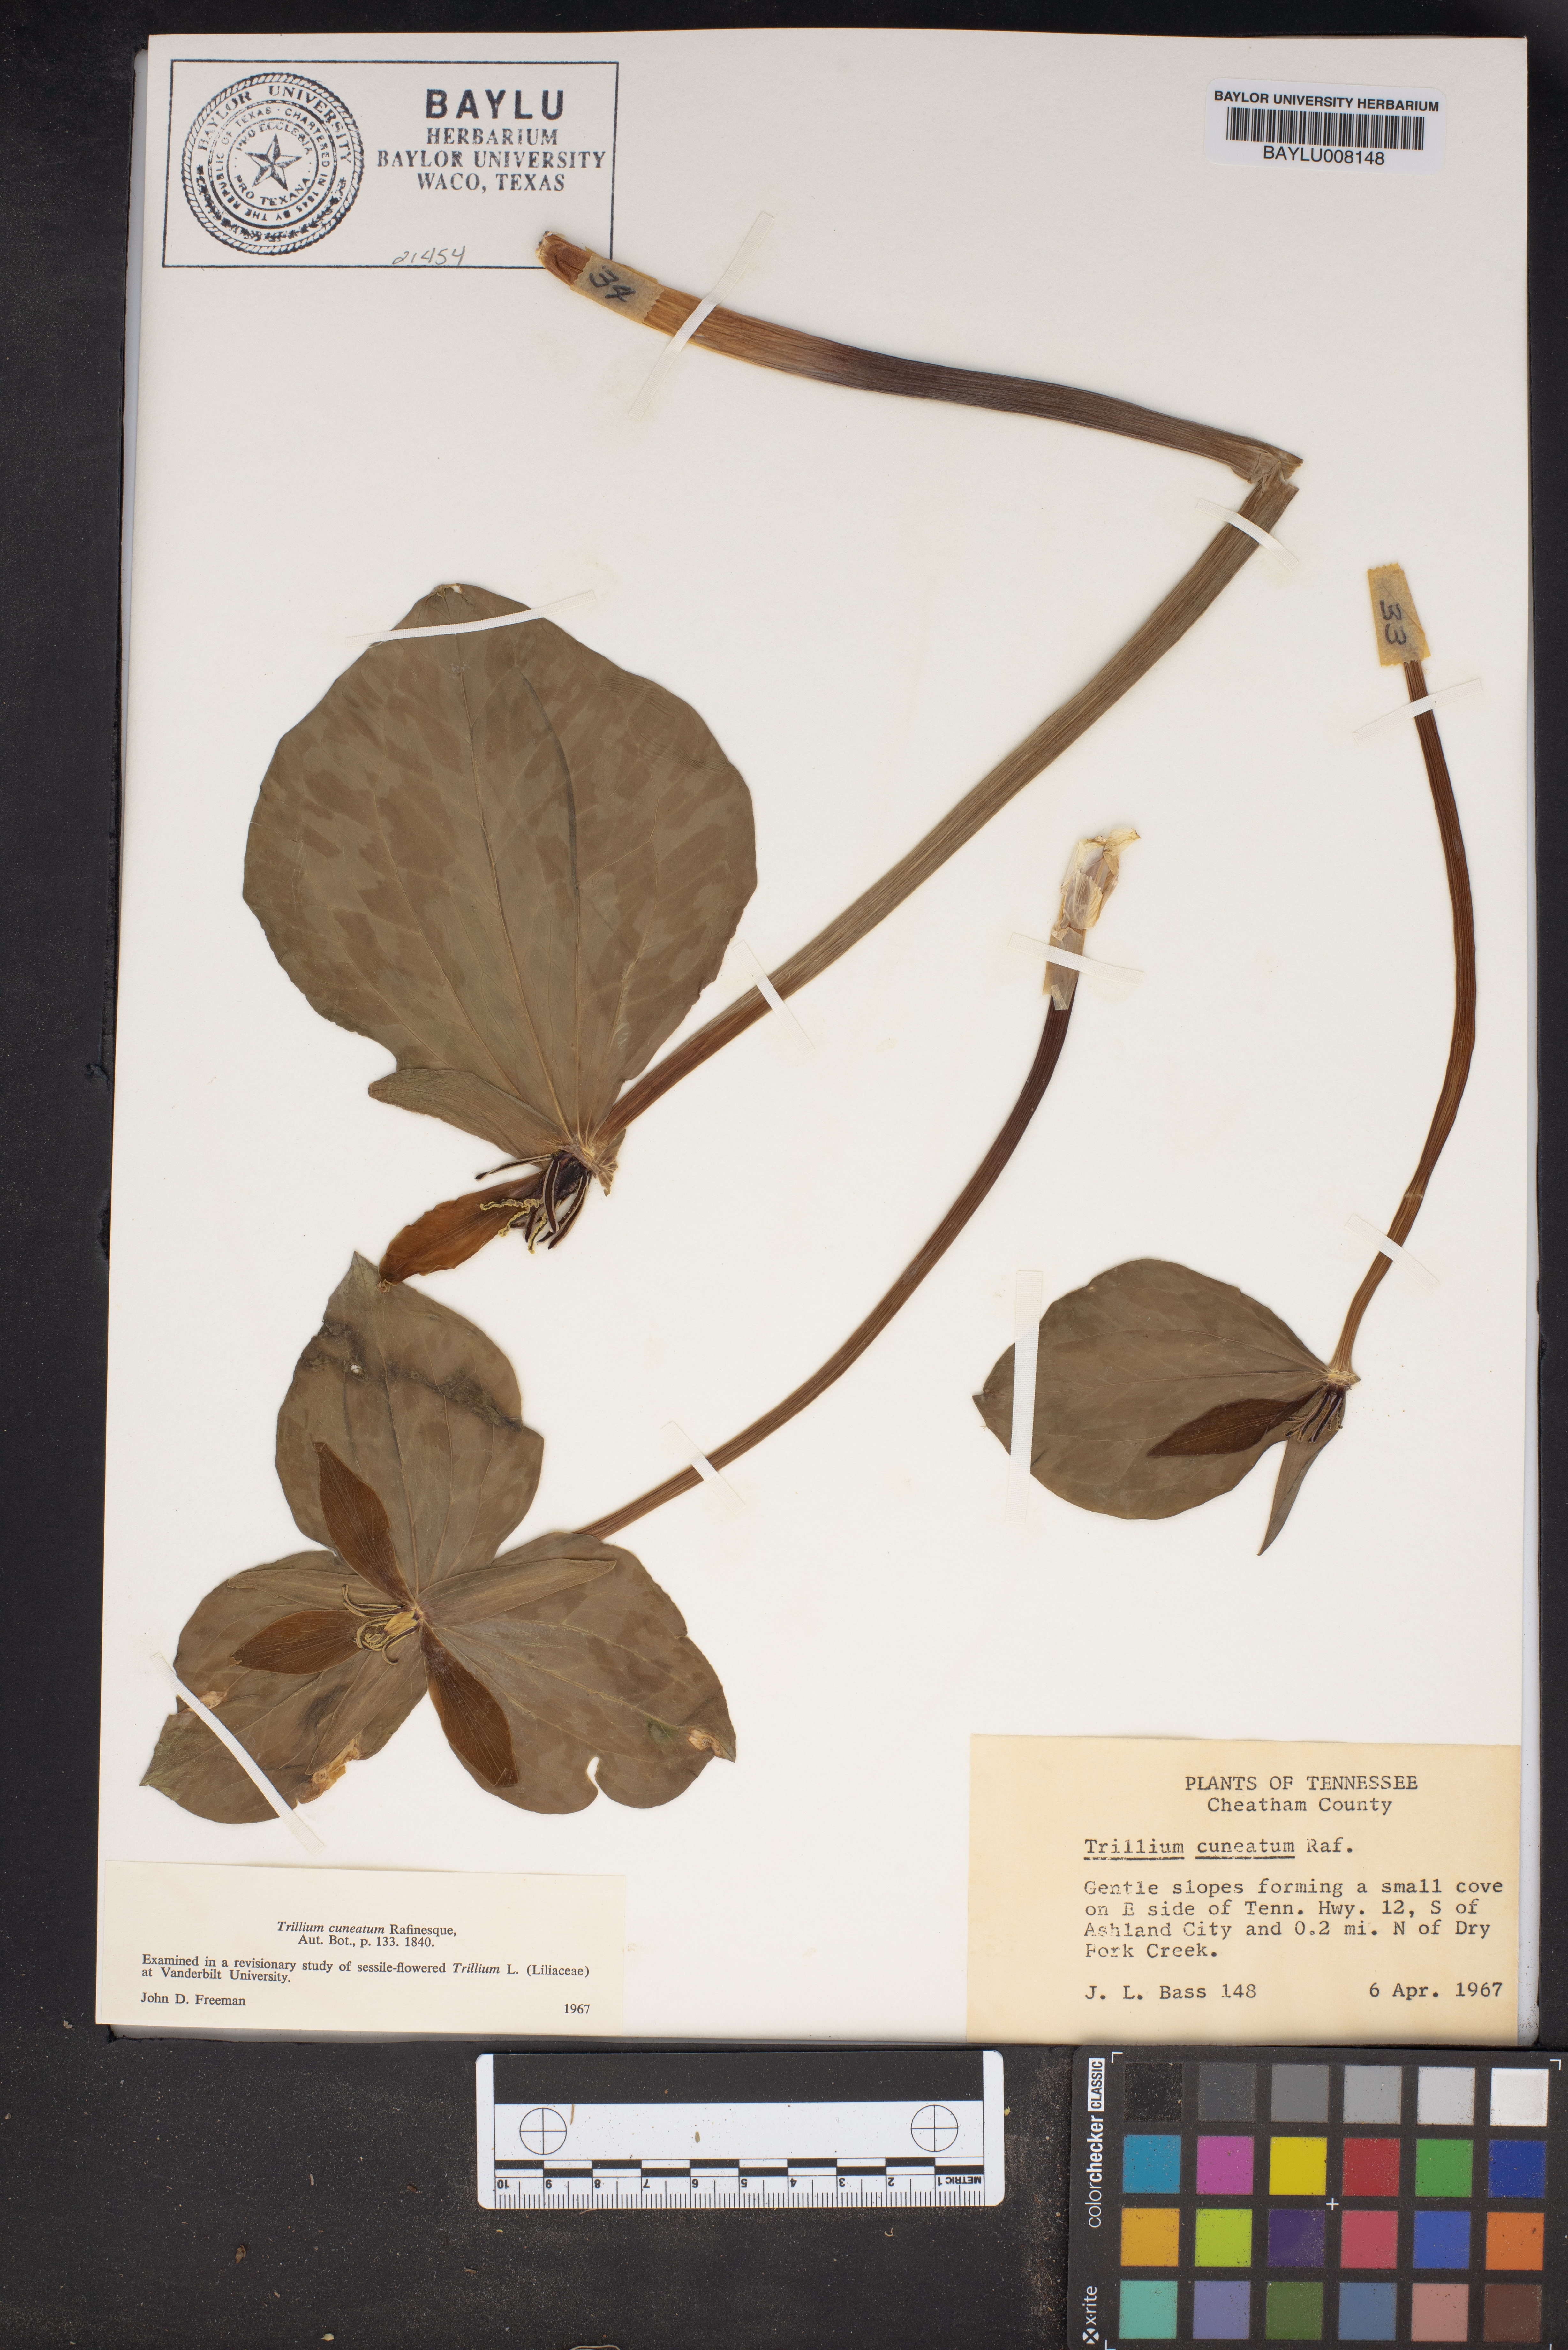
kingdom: Plantae
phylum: Tracheophyta
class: Liliopsida
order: Liliales
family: Melanthiaceae
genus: Trillium
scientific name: Trillium cuneatum
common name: Cuneate trillium
